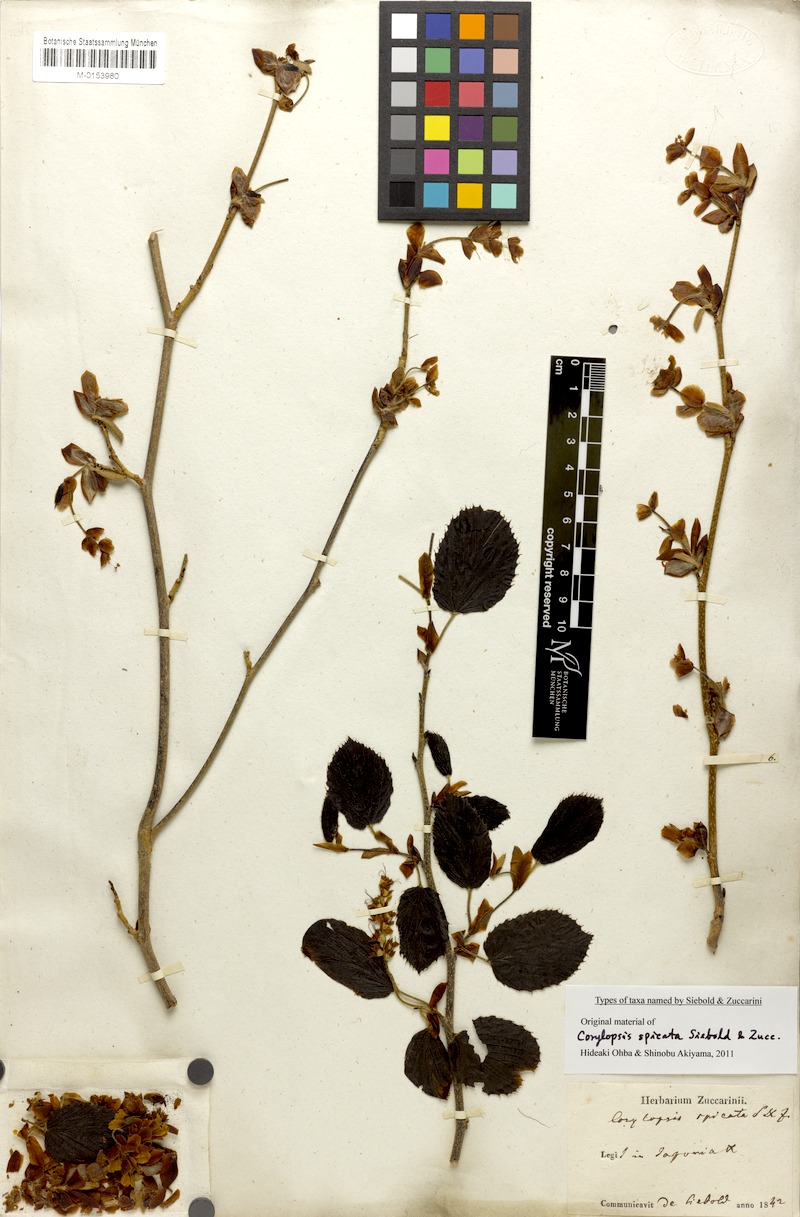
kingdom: Plantae
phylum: Tracheophyta
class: Magnoliopsida
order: Saxifragales
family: Hamamelidaceae
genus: Corylopsis
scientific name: Corylopsis spicata
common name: Spike winter-hazel
